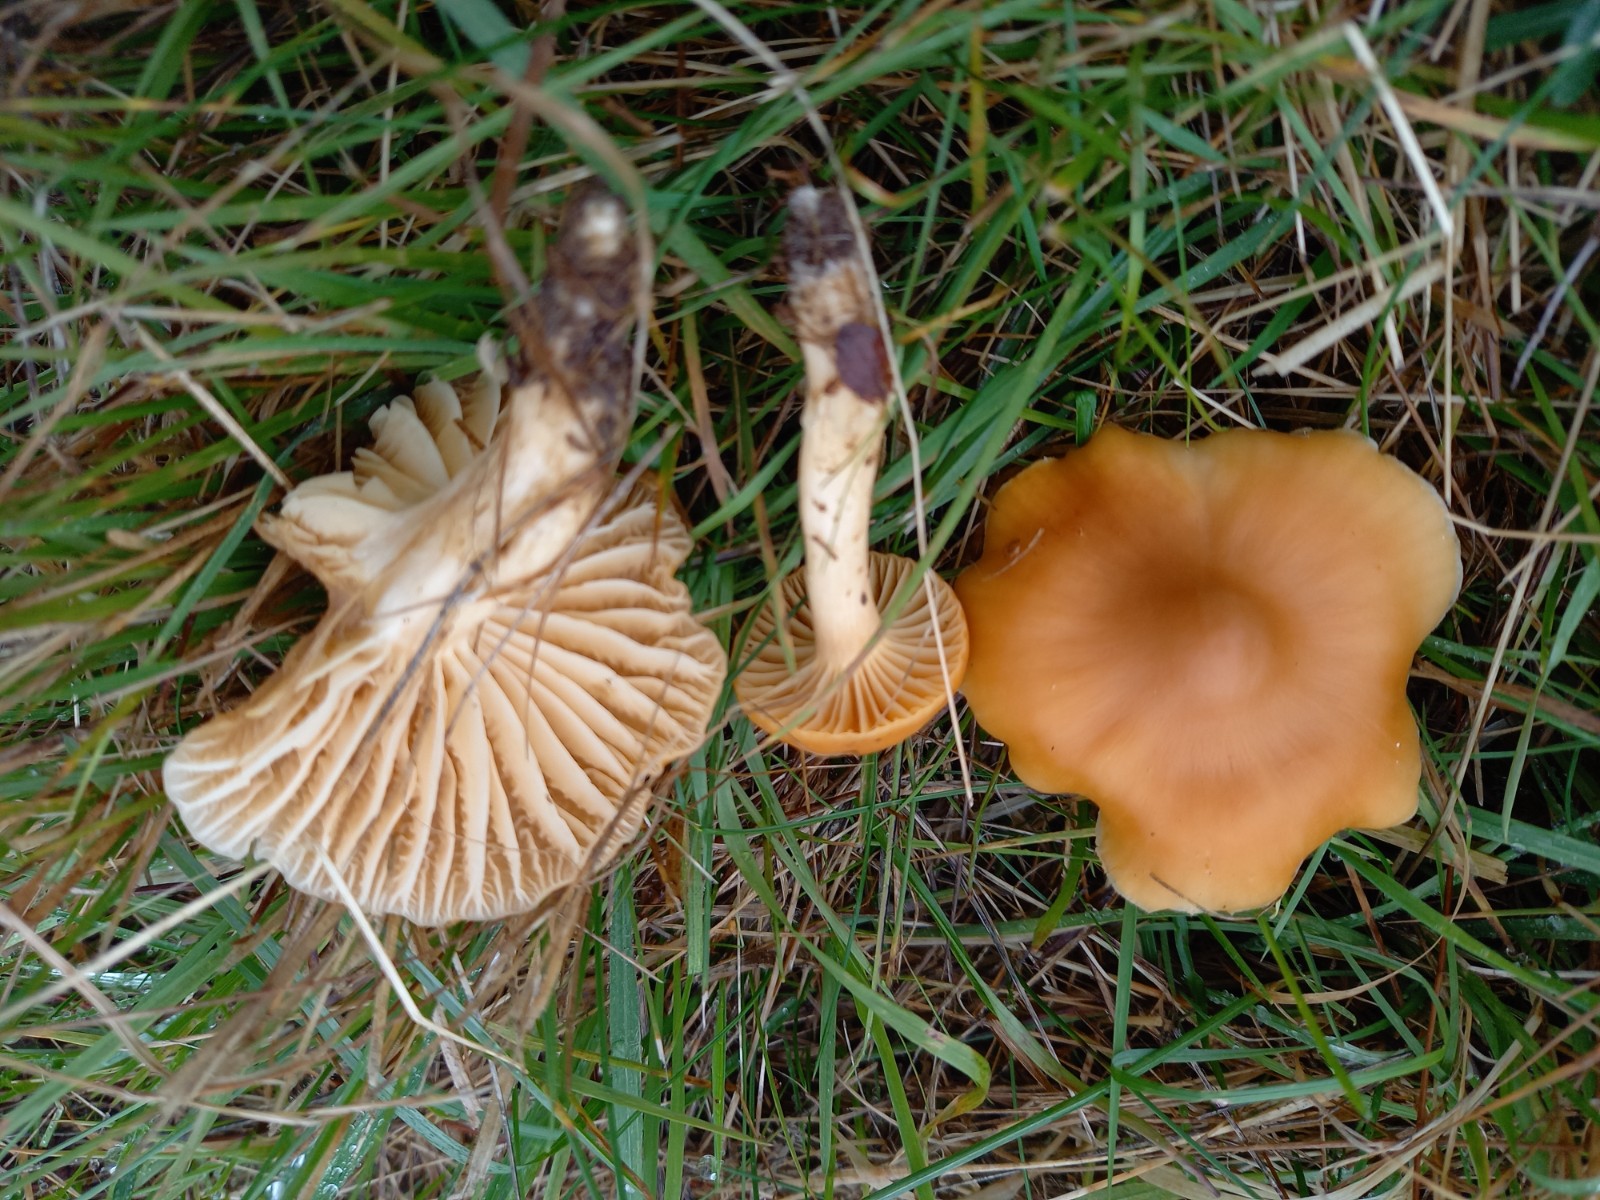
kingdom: Fungi
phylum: Basidiomycota
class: Agaricomycetes
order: Agaricales
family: Hygrophoraceae
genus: Cuphophyllus
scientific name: Cuphophyllus pratensis
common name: eng-vokshat
